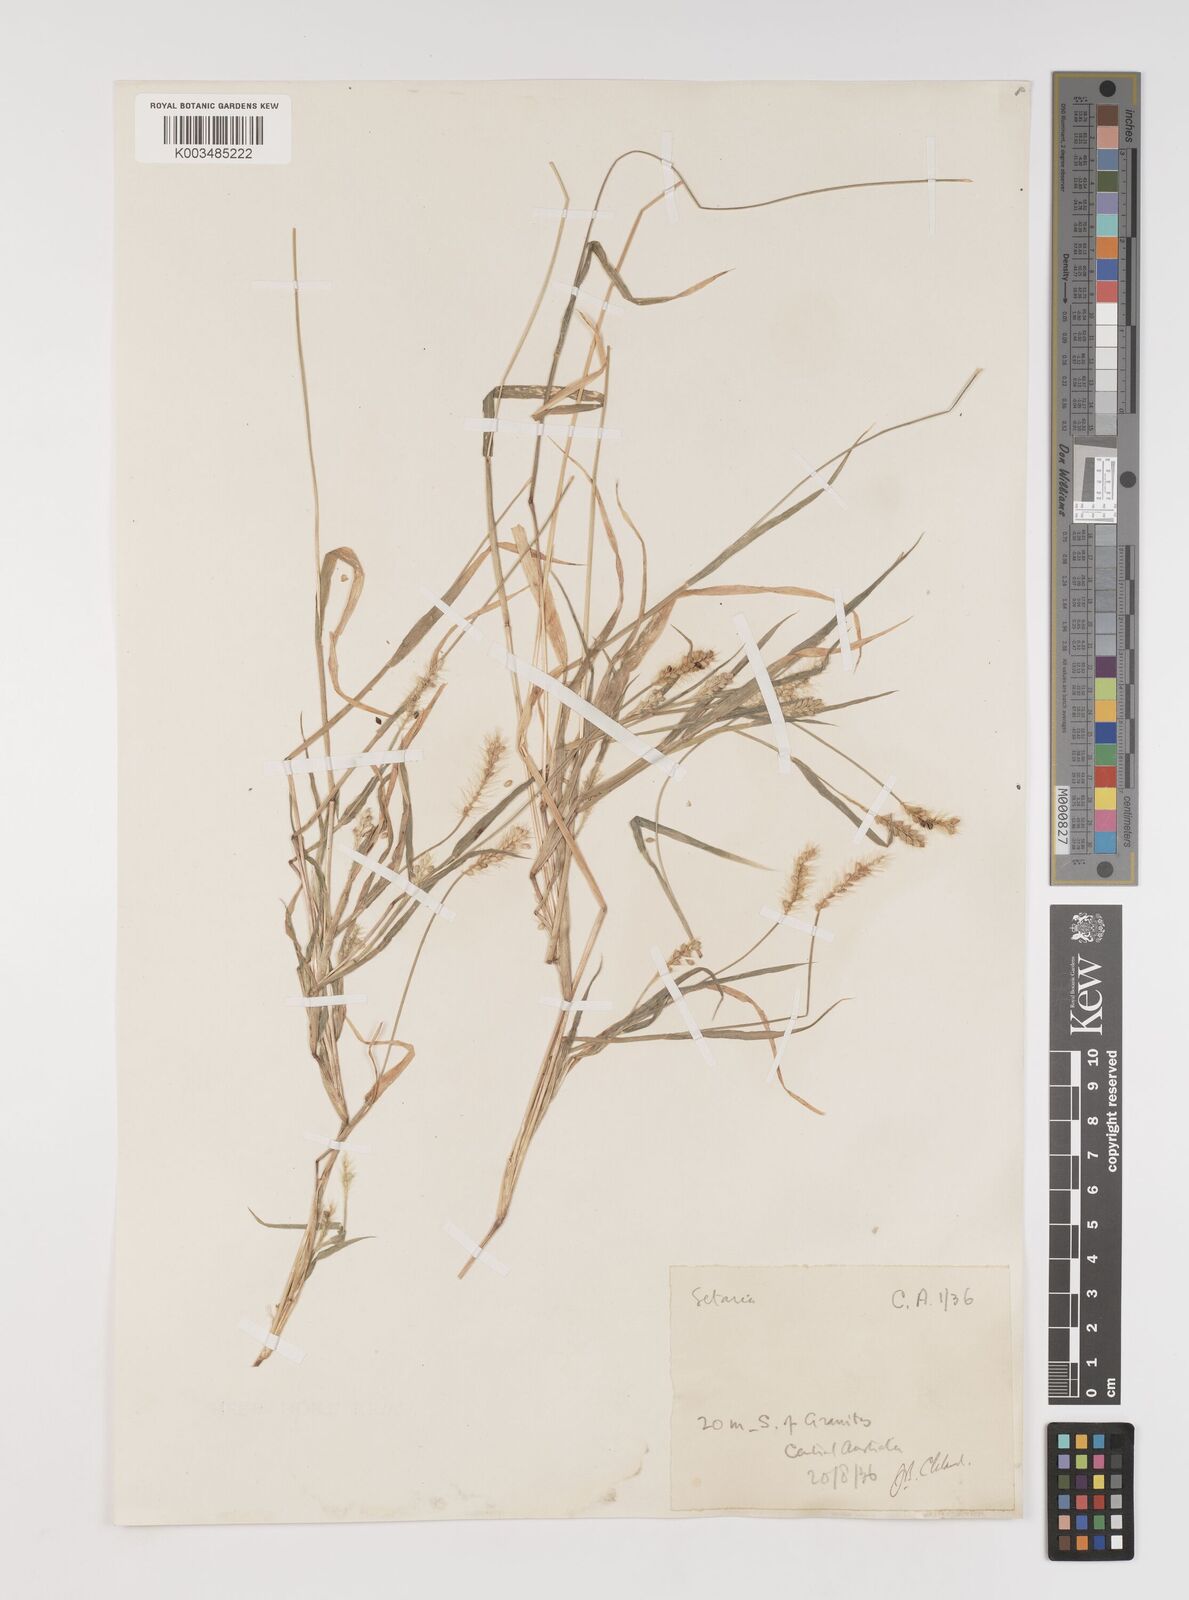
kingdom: Plantae
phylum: Tracheophyta
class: Liliopsida
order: Poales
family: Poaceae
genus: Setaria
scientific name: Setaria surgens
